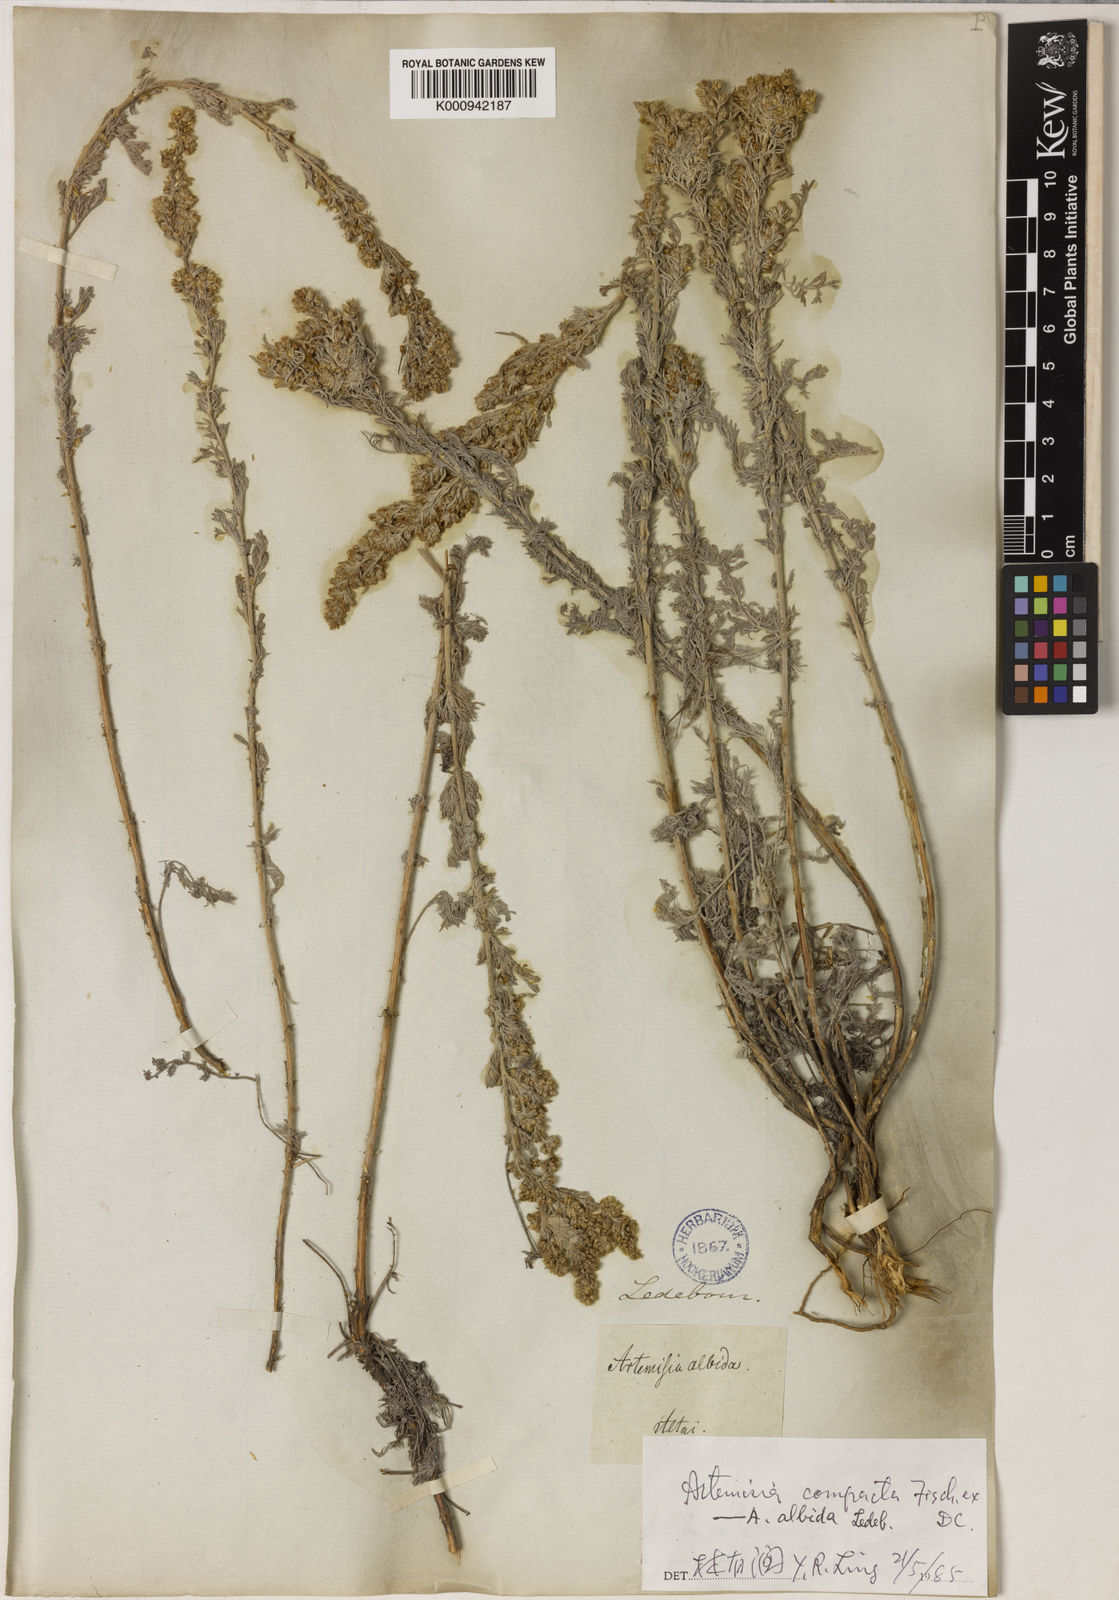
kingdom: Plantae
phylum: Tracheophyta
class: Magnoliopsida
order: Asterales
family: Asteraceae
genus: Artemisia
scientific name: Artemisia compacta
